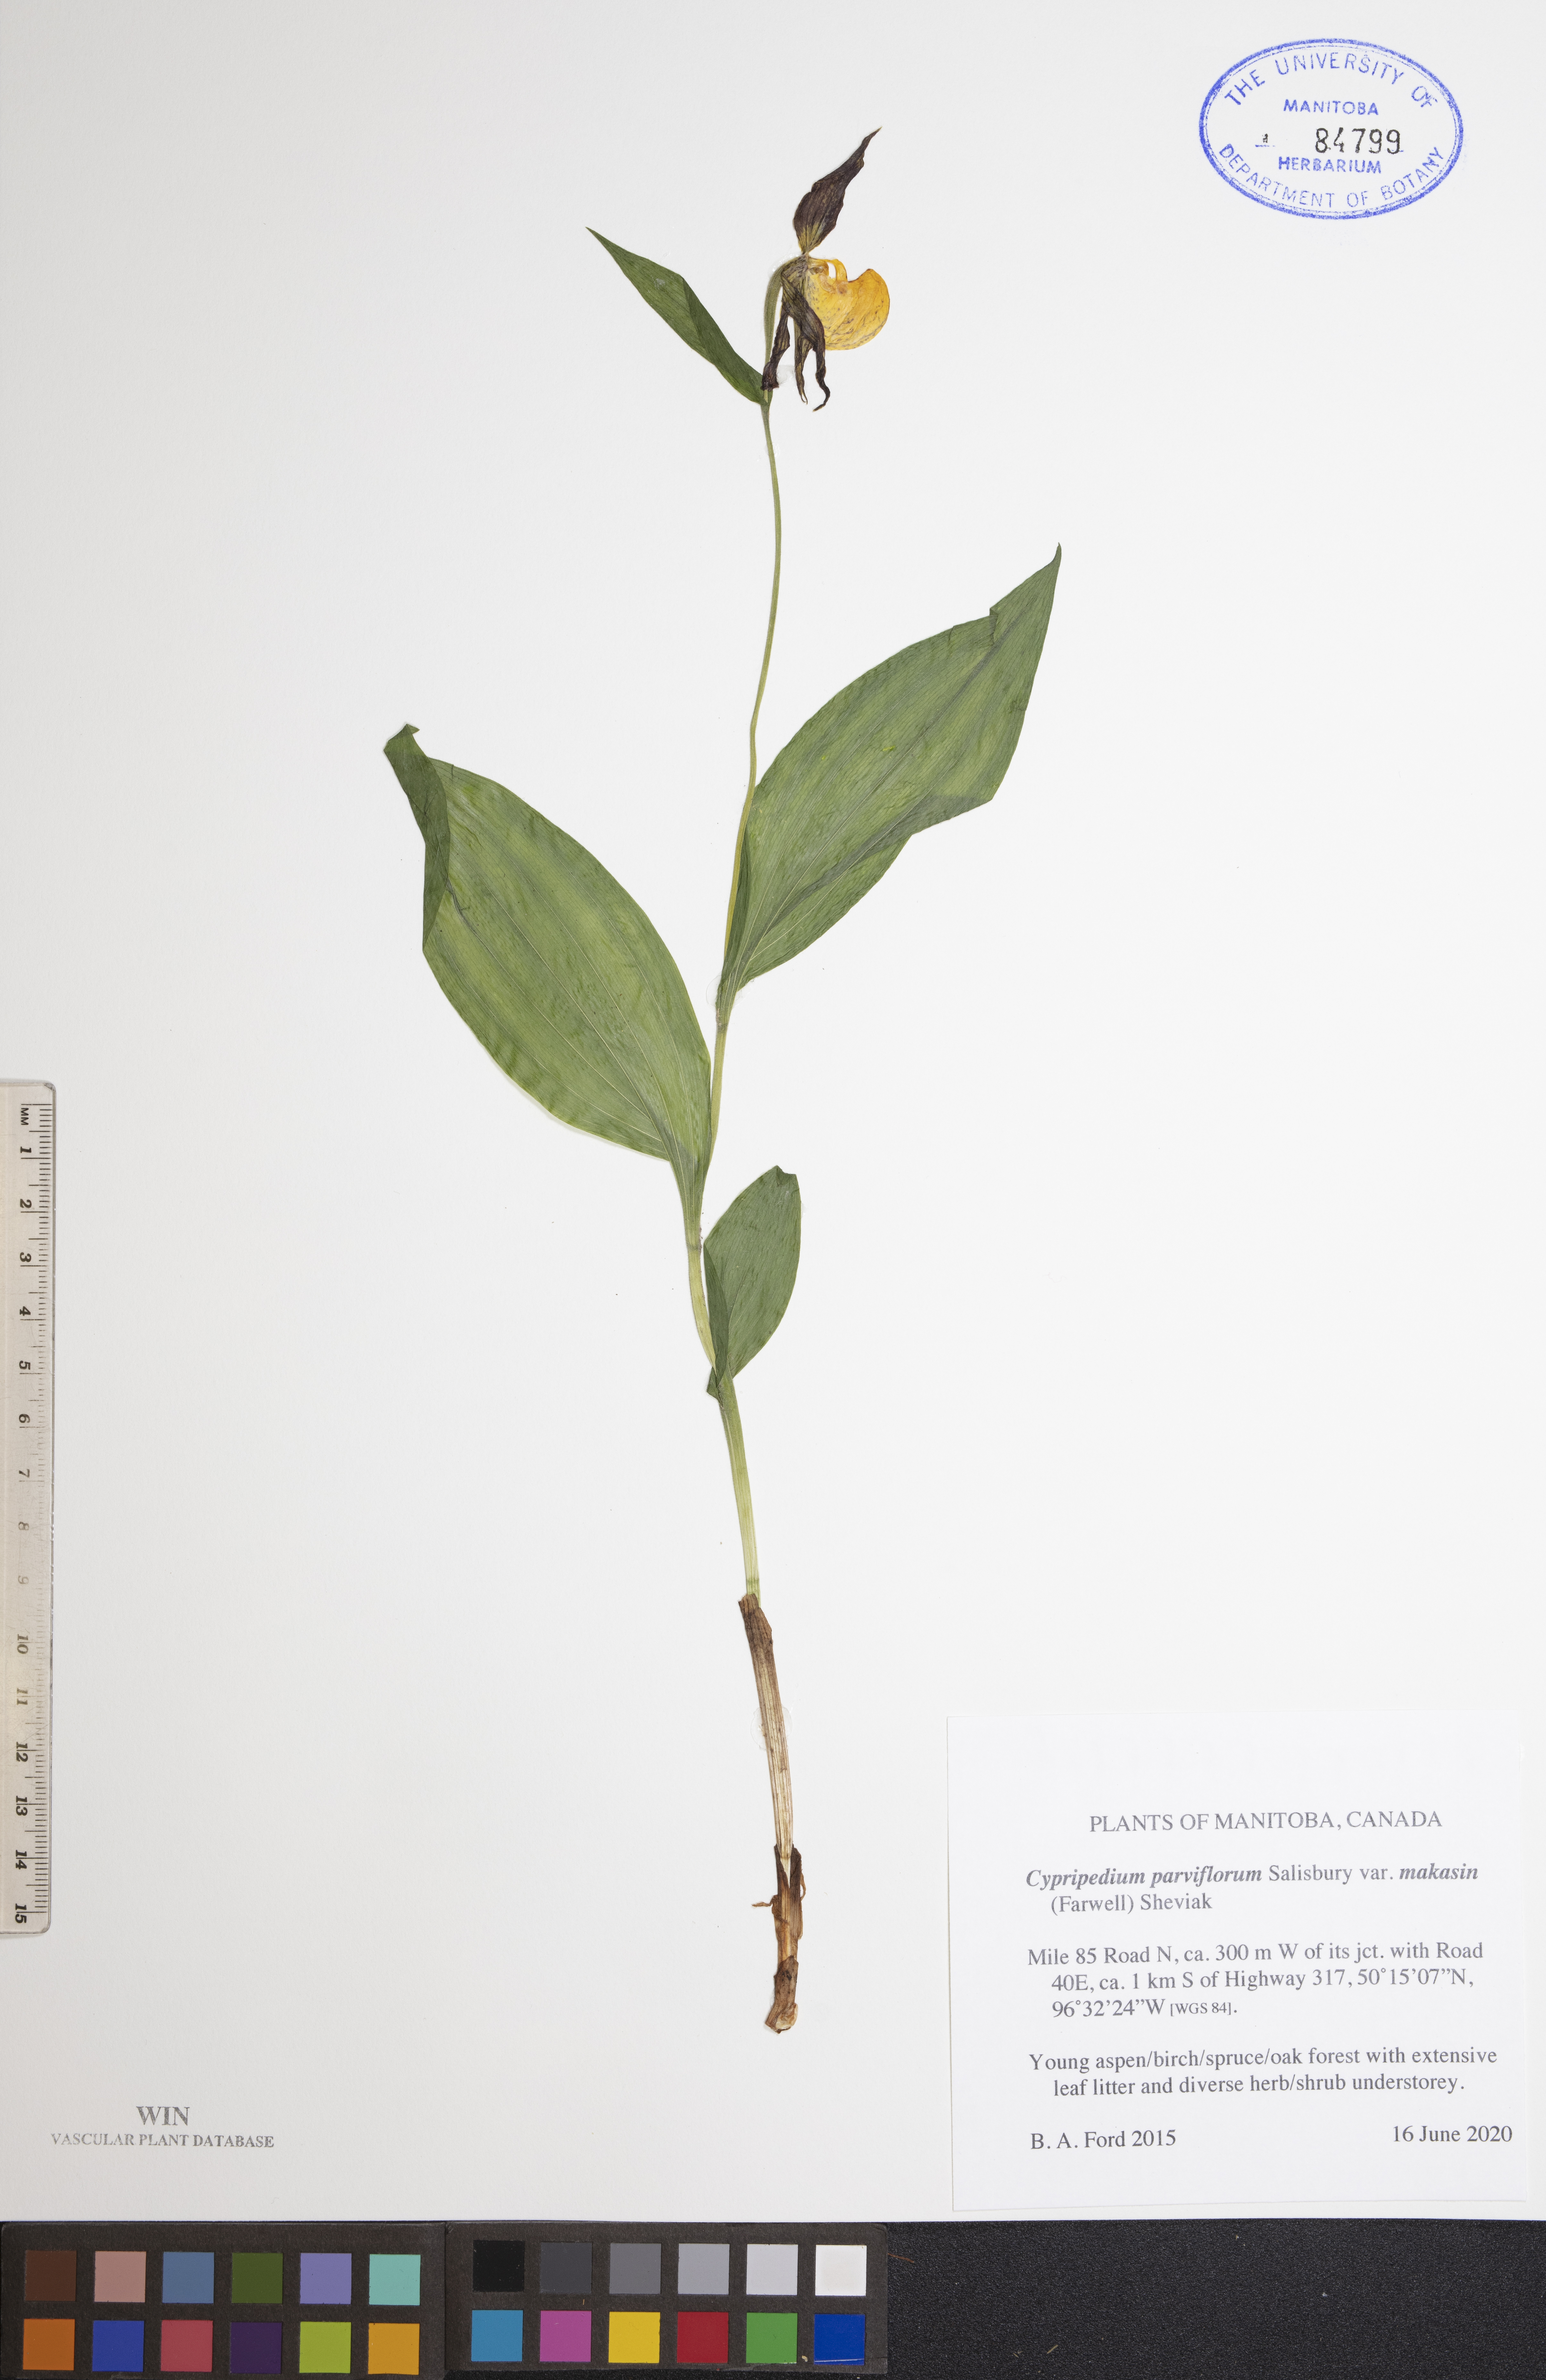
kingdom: Plantae
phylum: Tracheophyta
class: Liliopsida
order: Asparagales
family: Orchidaceae
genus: Cypripedium
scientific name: Cypripedium parviflorum
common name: American yellow lady's-slipper
